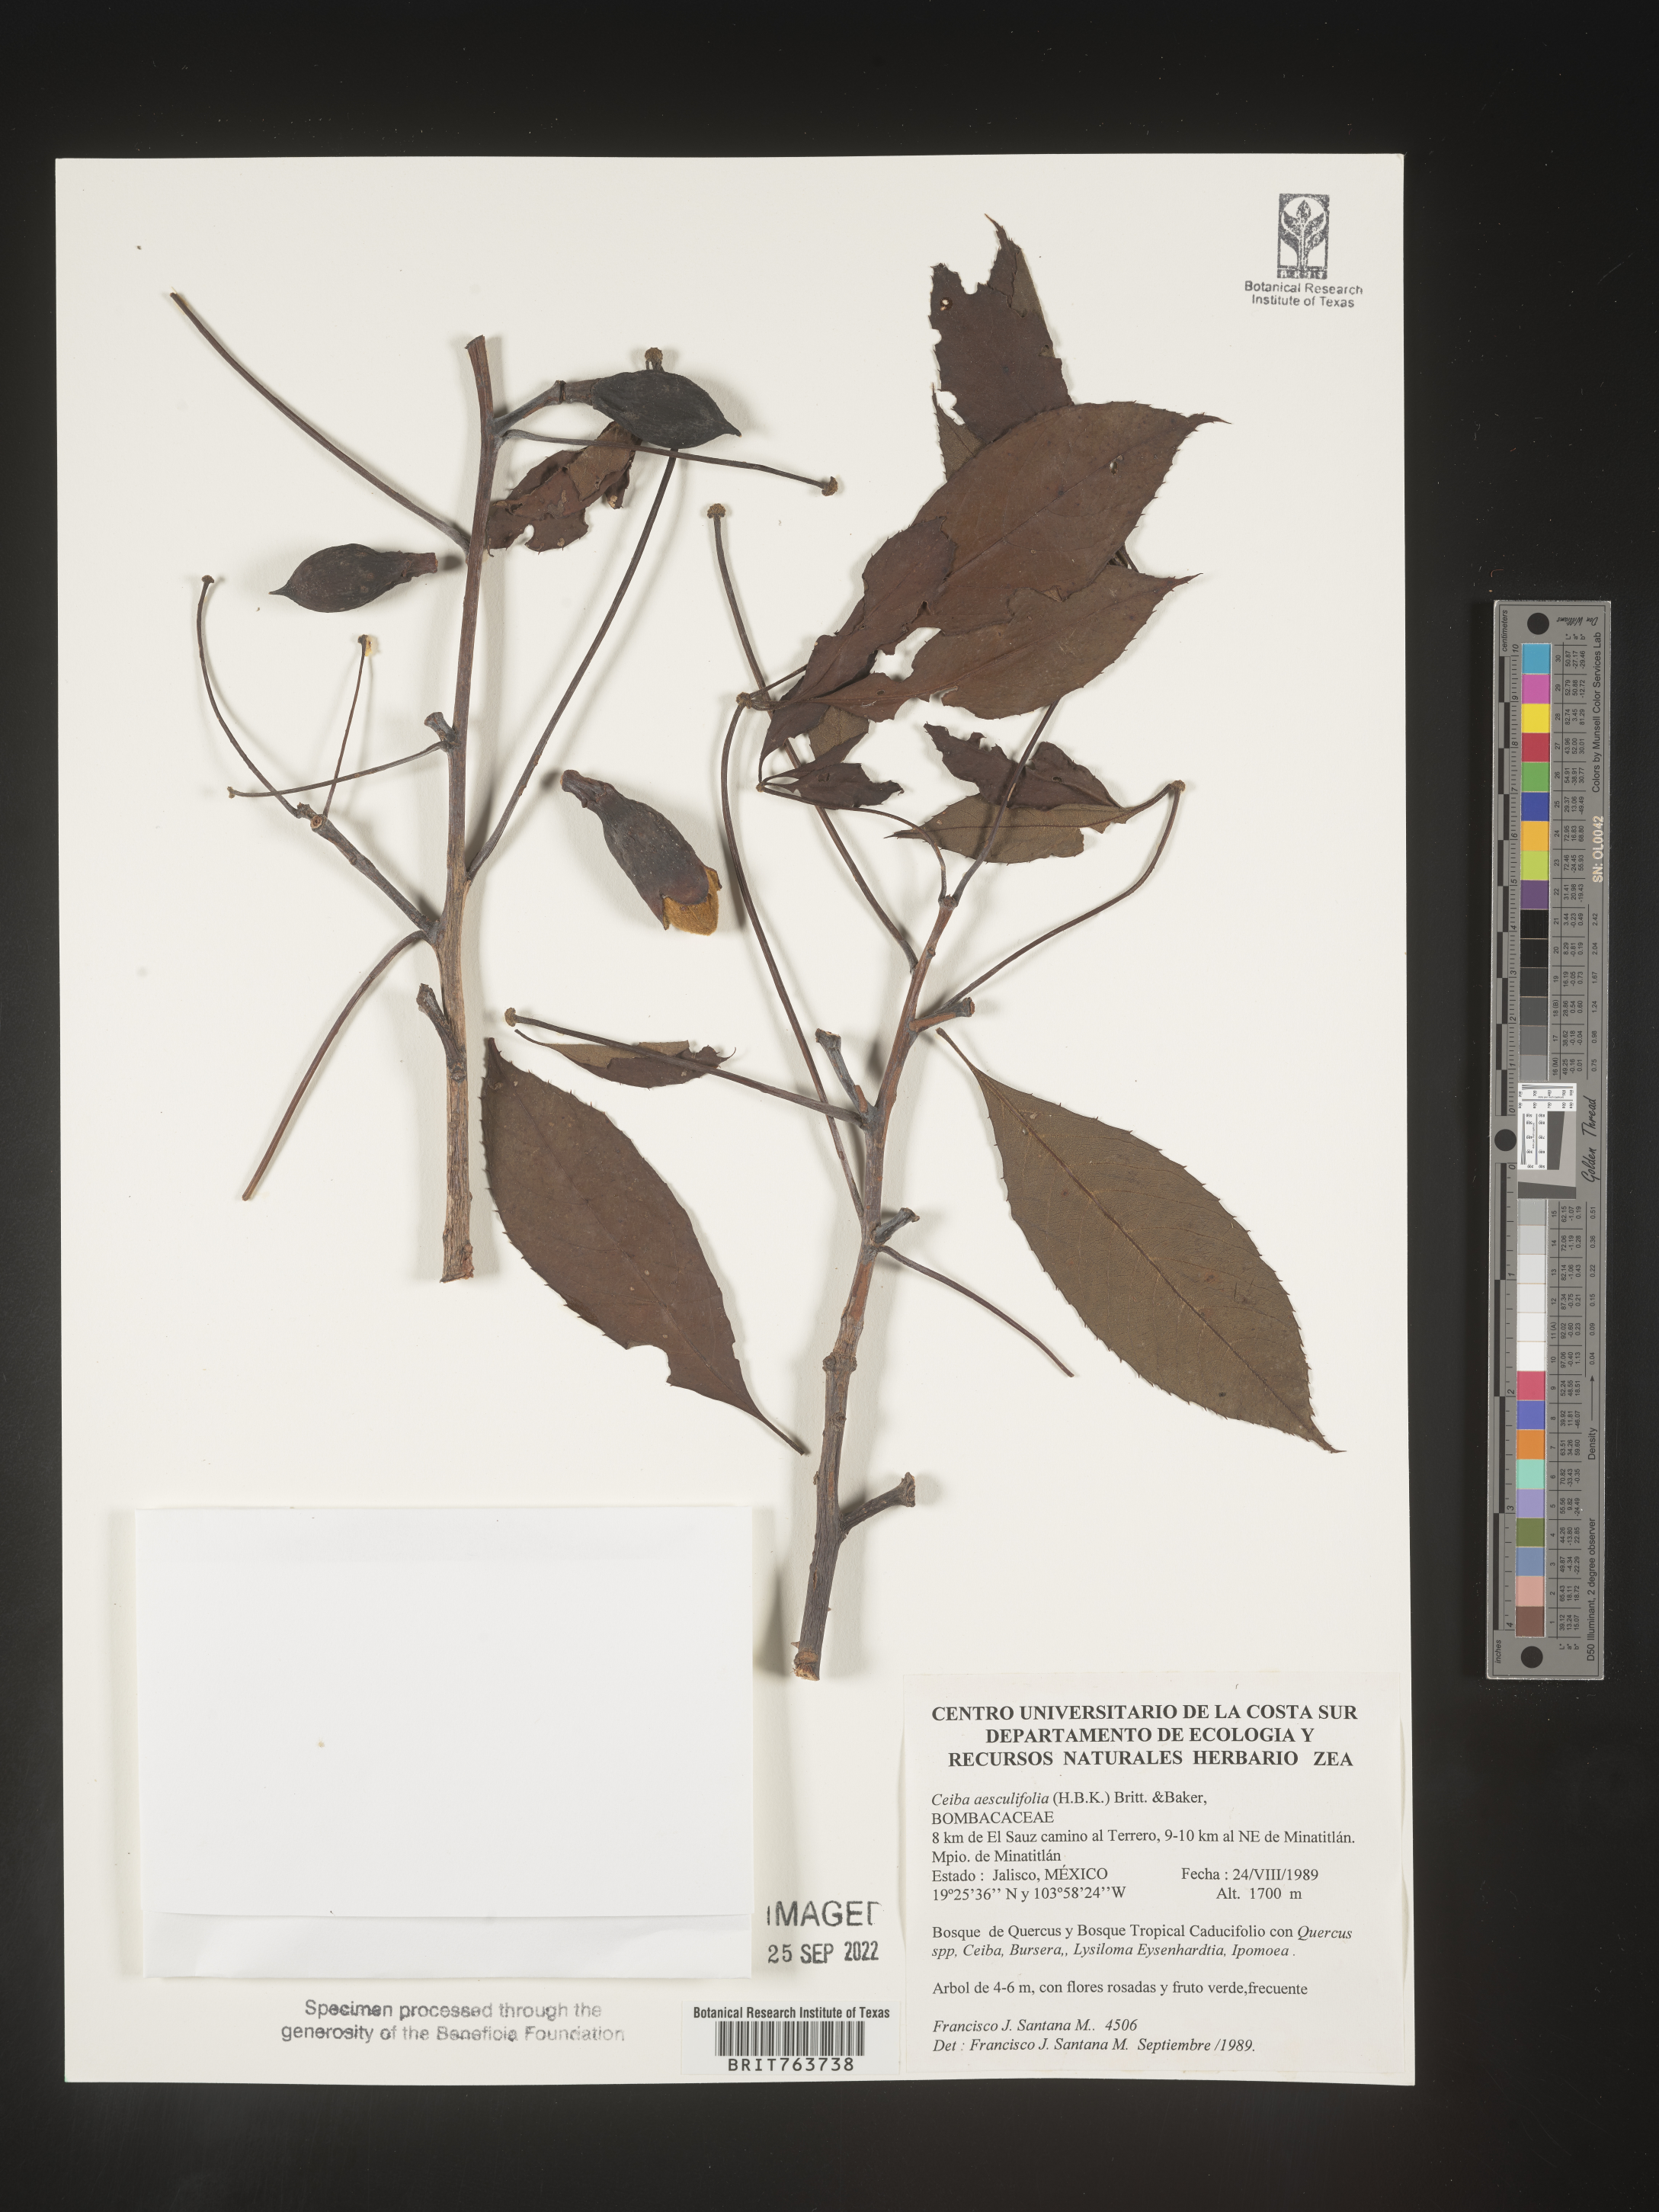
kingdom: Plantae
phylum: Tracheophyta
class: Magnoliopsida
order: Malvales
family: Malvaceae
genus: Ceiba
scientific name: Ceiba
